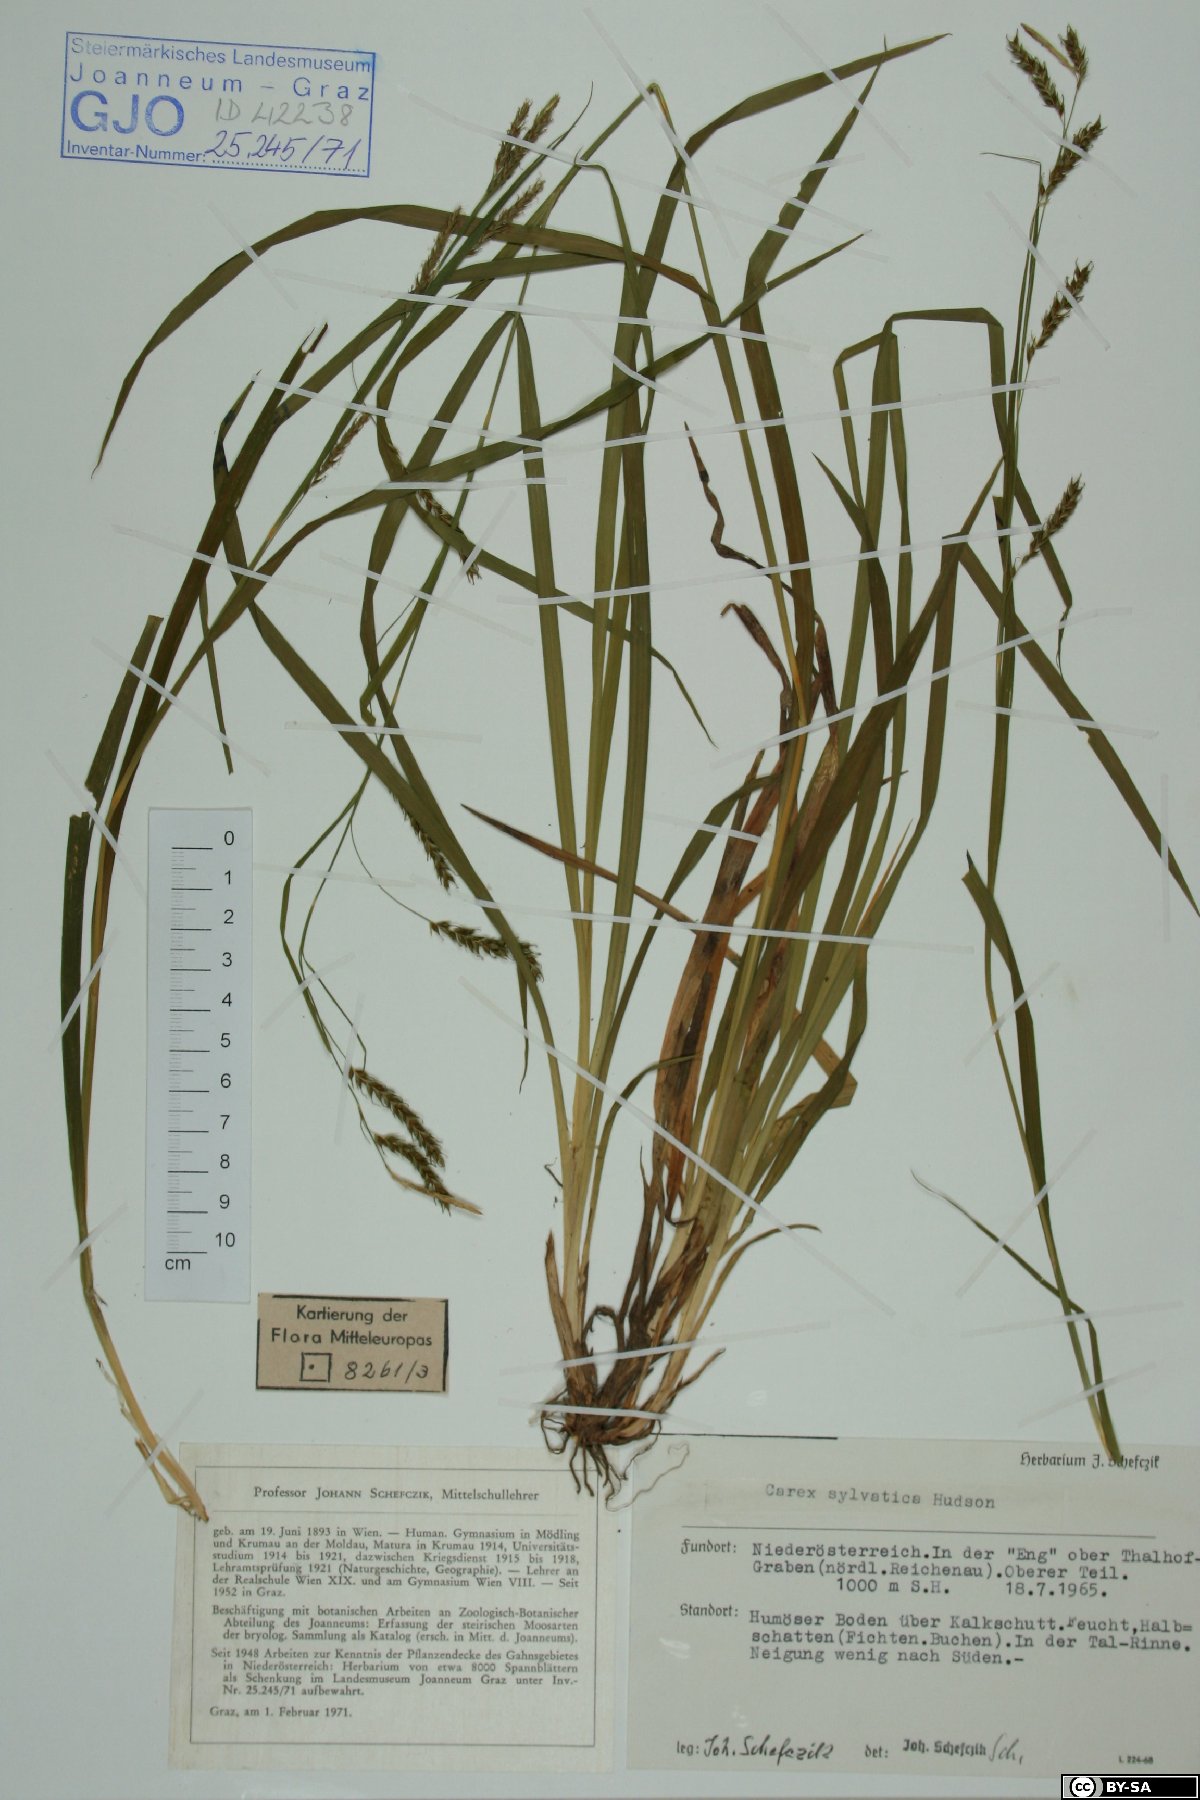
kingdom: Plantae
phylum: Tracheophyta
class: Liliopsida
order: Poales
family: Cyperaceae
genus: Carex
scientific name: Carex sylvatica
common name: Wood-sedge
